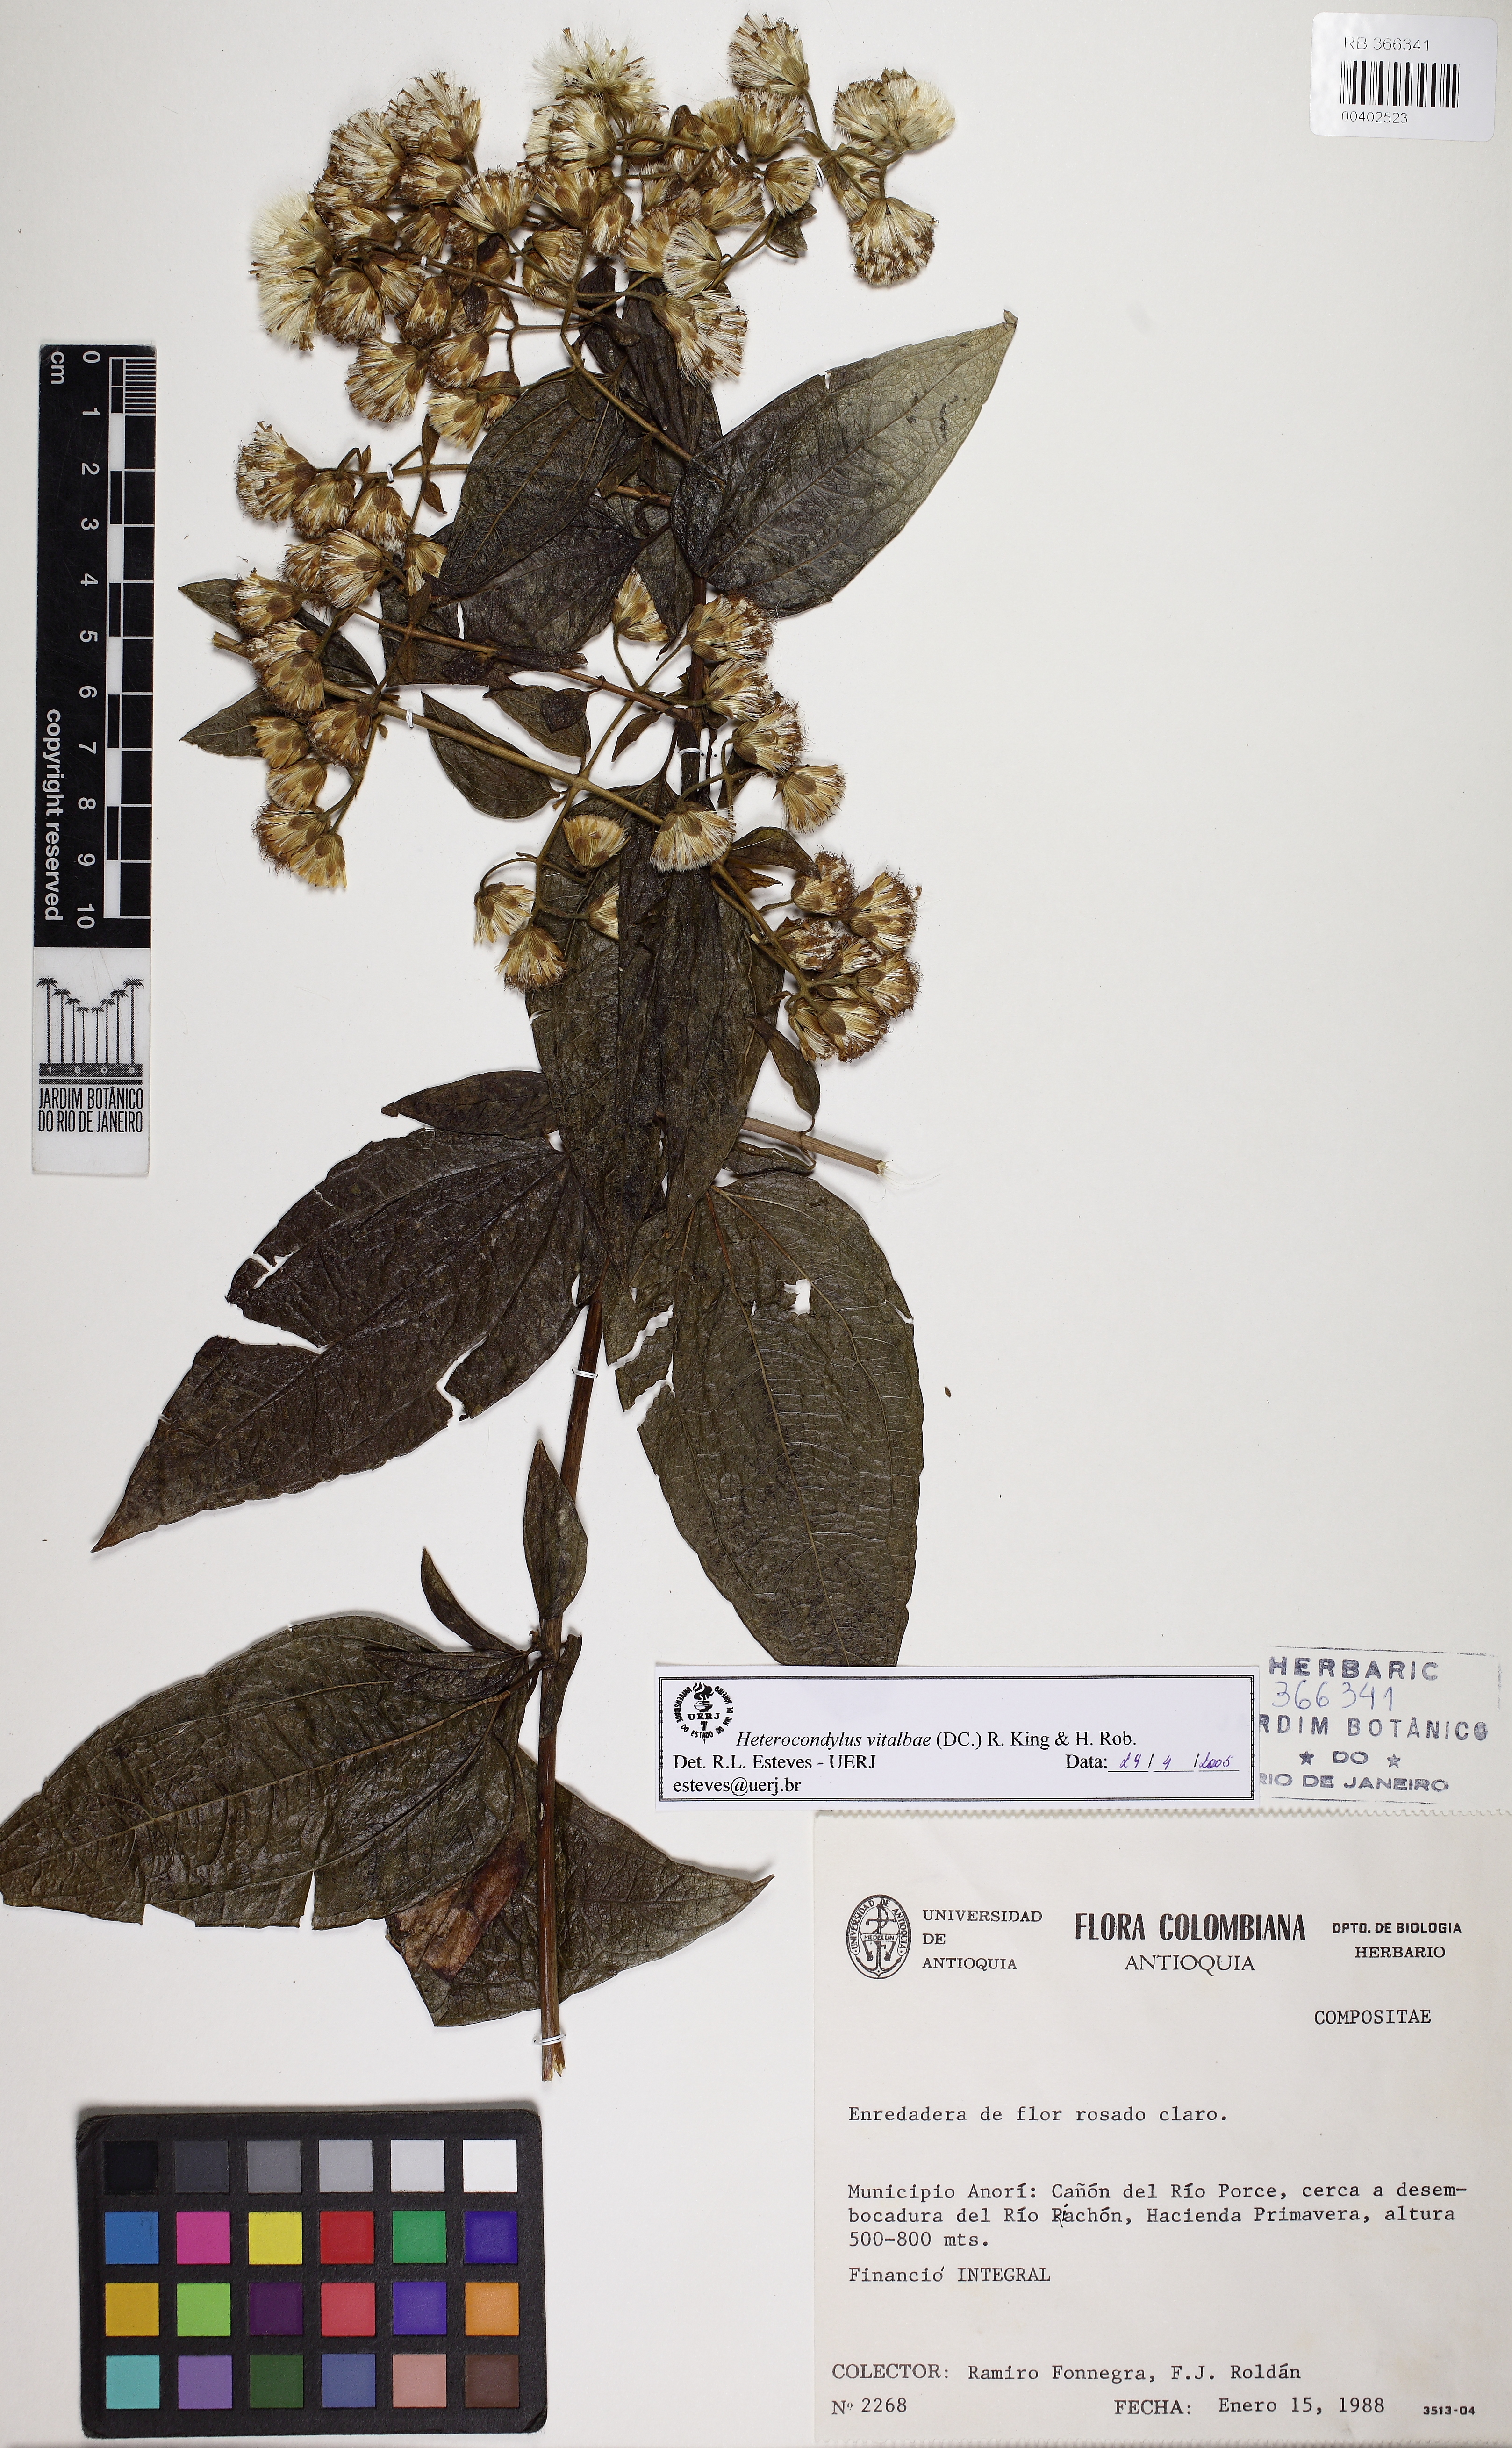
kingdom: Plantae
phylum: Tracheophyta
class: Magnoliopsida
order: Asterales
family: Asteraceae
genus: Heterocondylus
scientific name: Heterocondylus vitalbae
